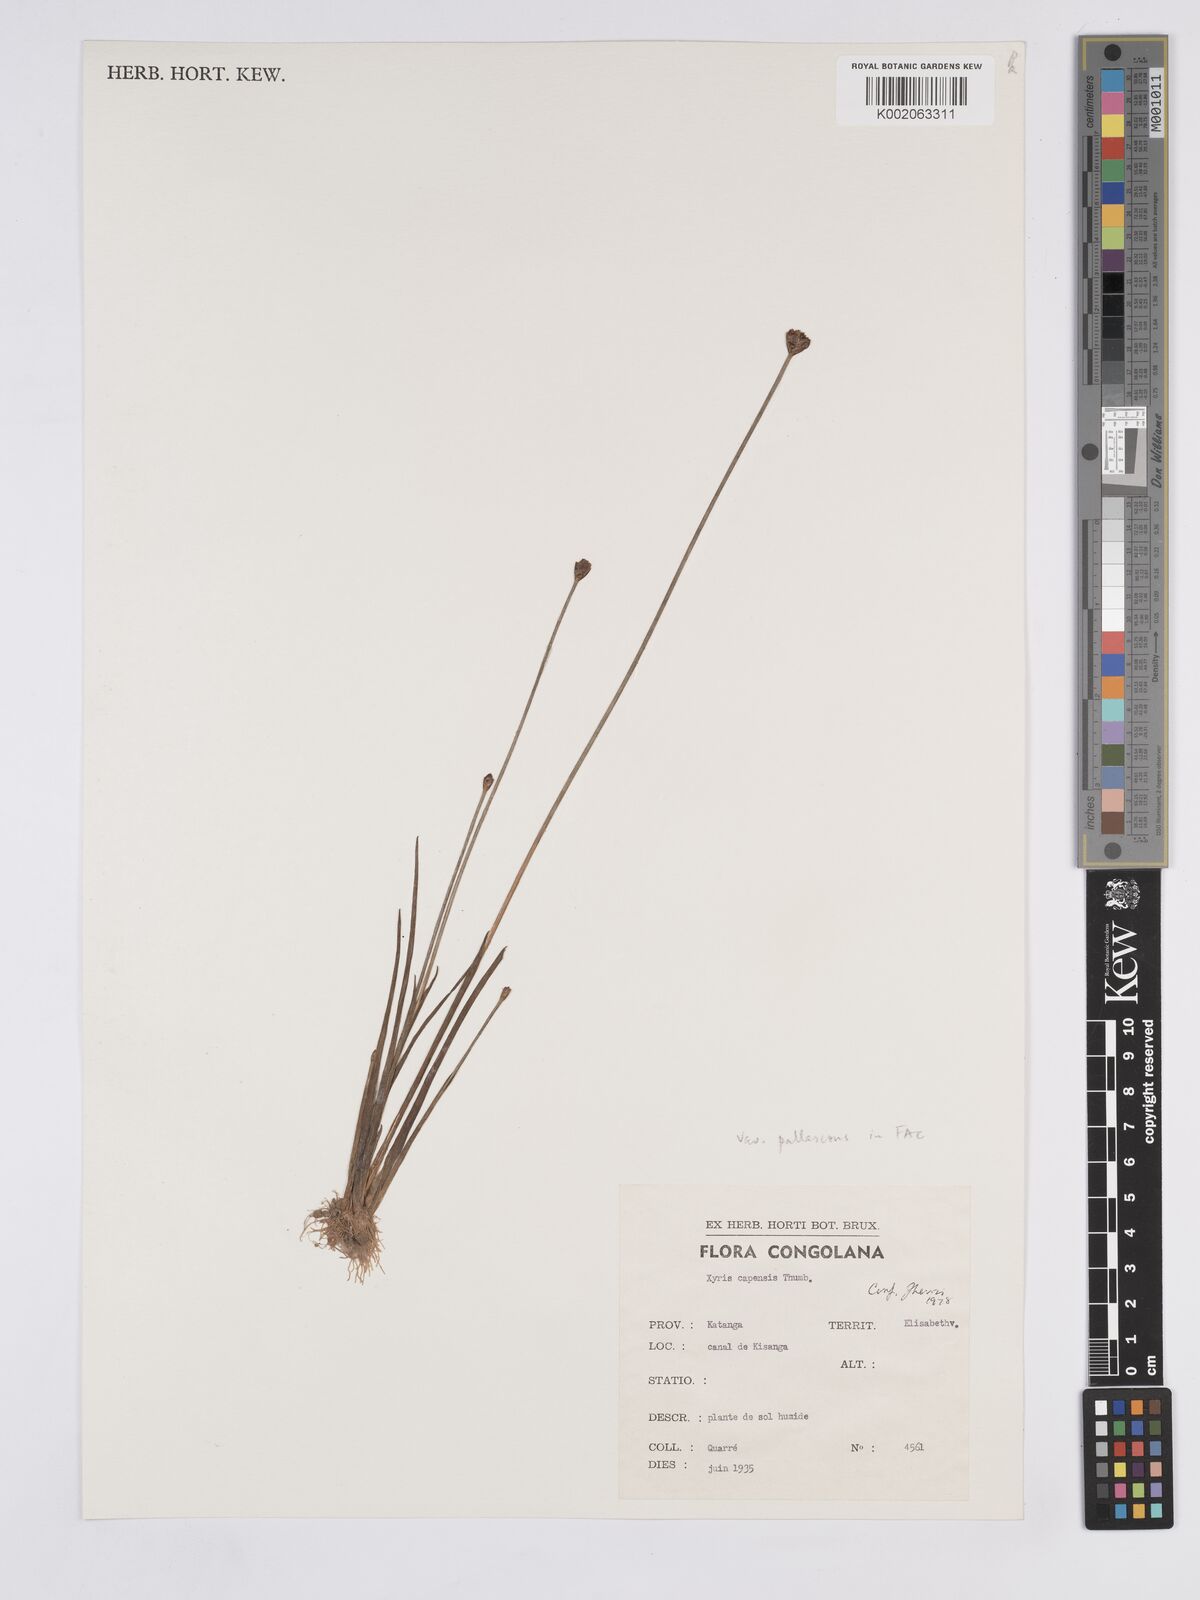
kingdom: Plantae
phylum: Tracheophyta
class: Liliopsida
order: Poales
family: Xyridaceae
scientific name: Xyridaceae
